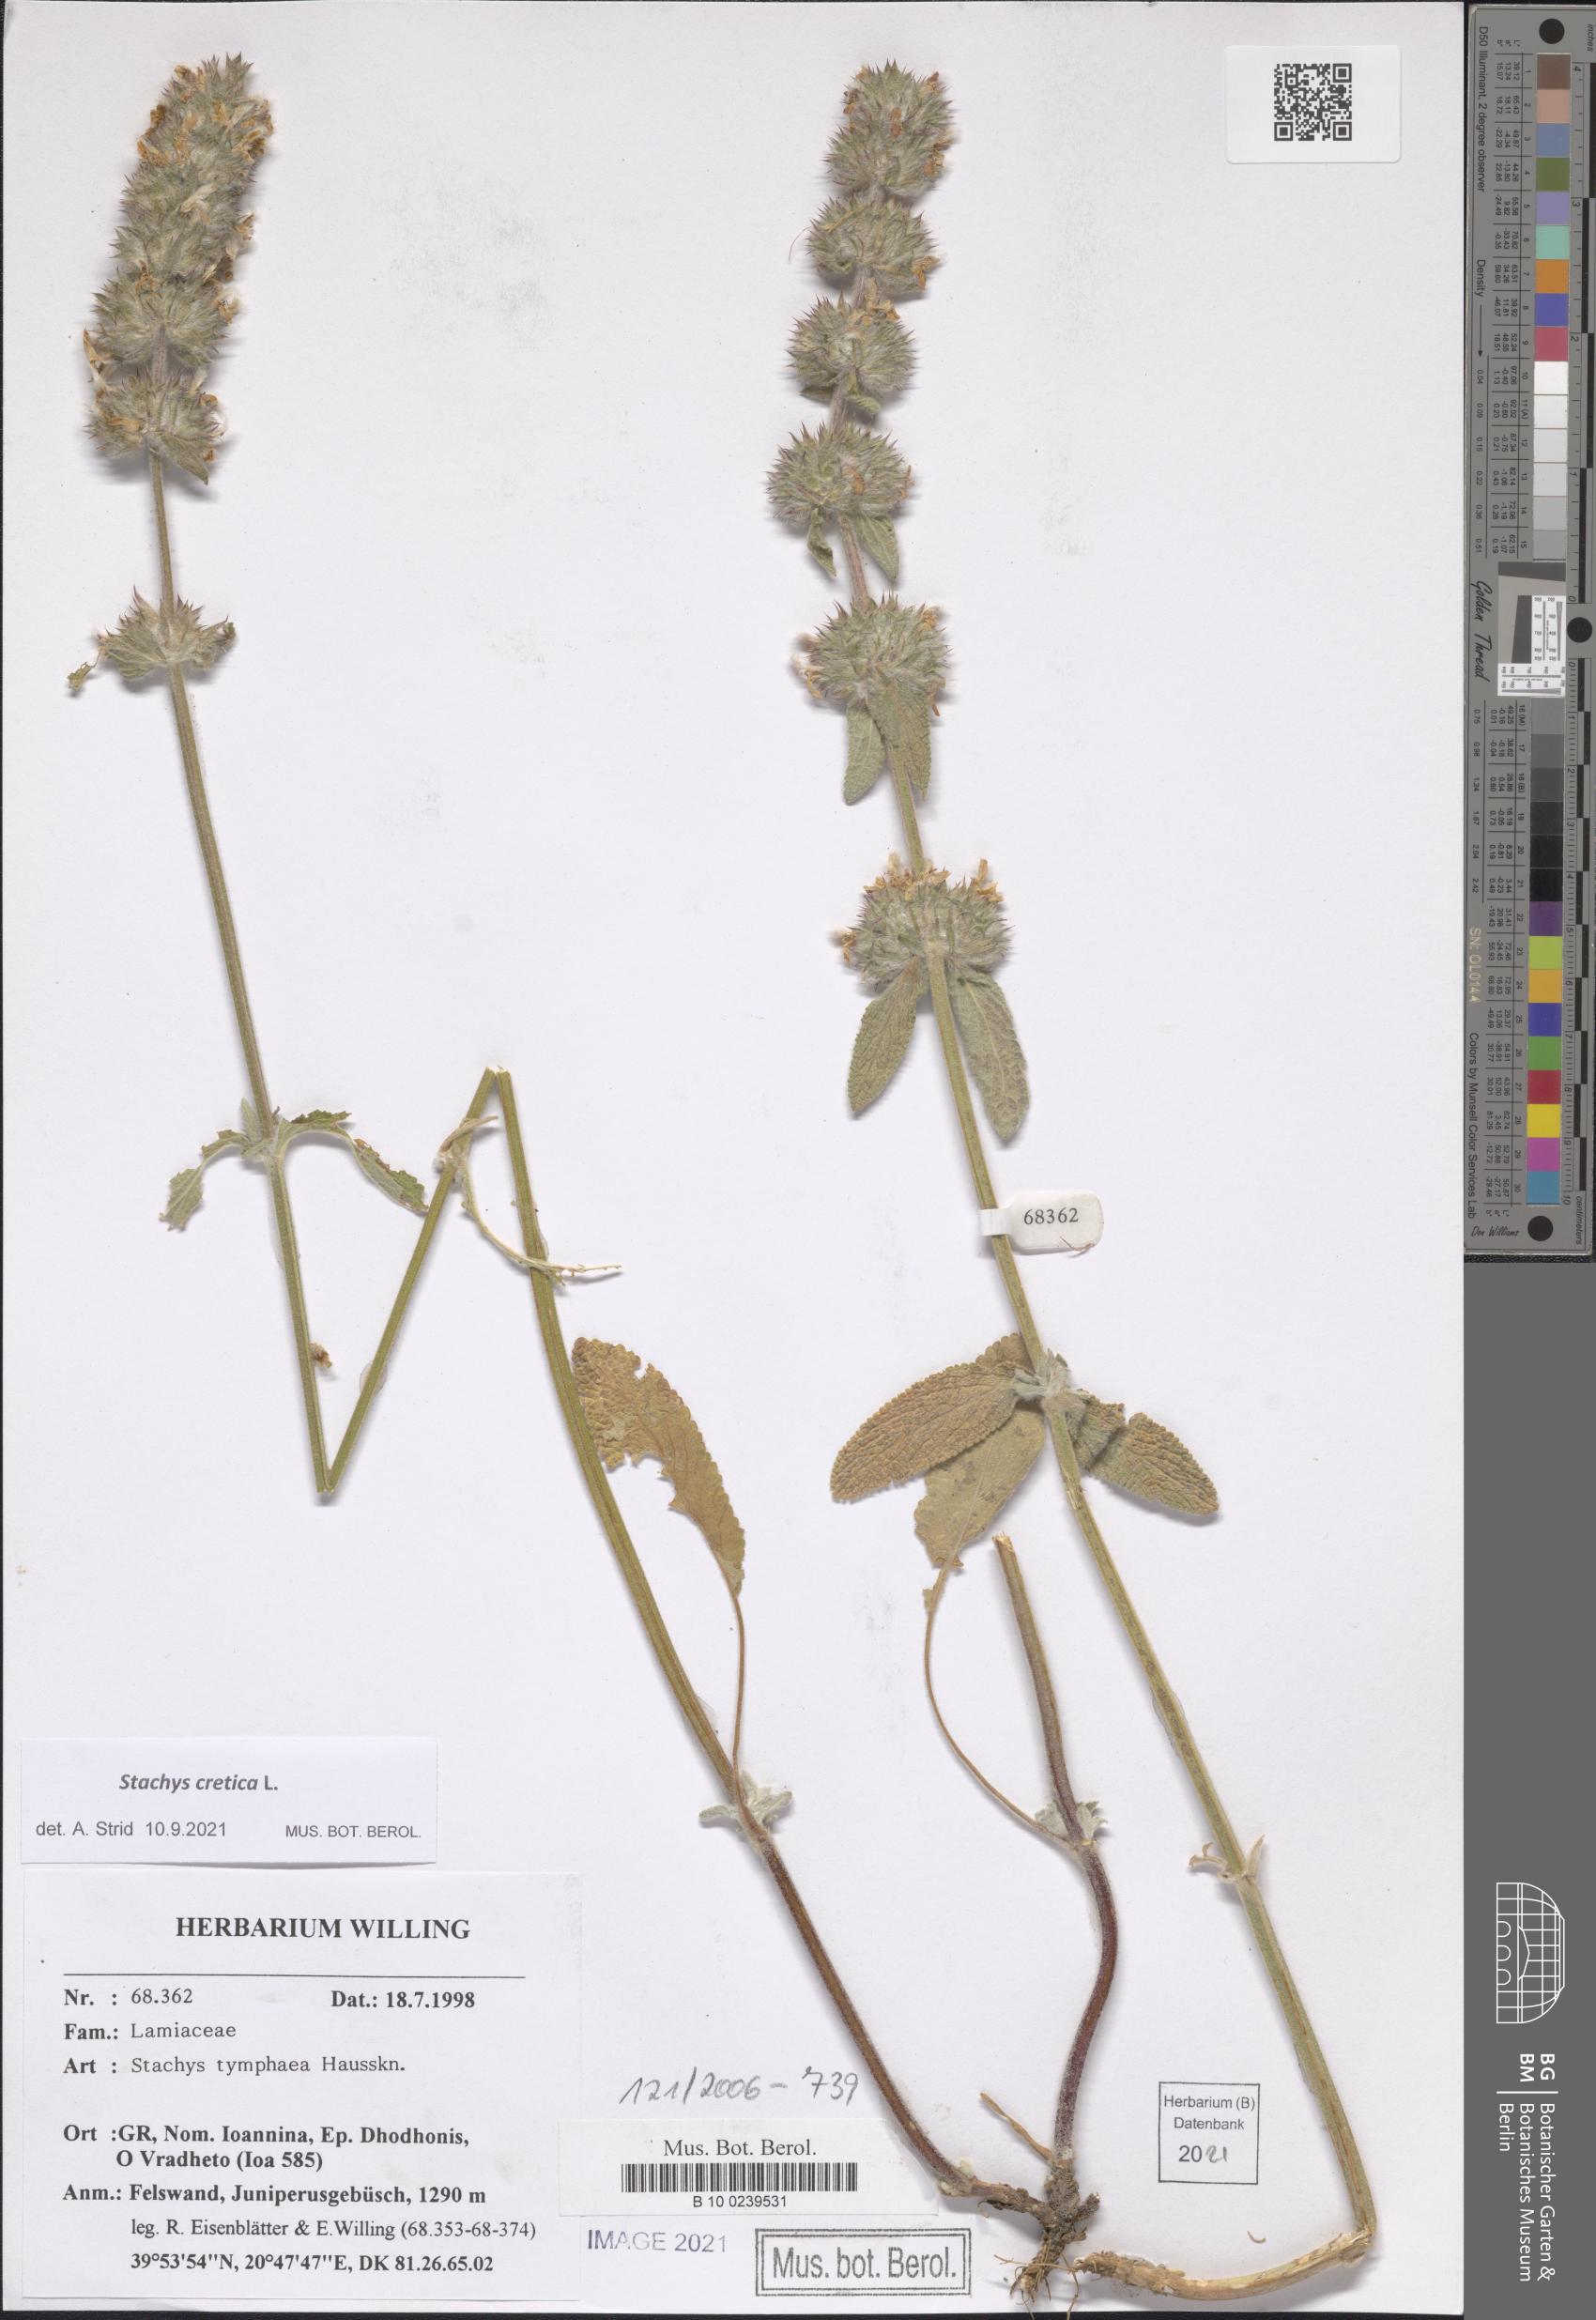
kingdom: Plantae
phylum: Tracheophyta
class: Magnoliopsida
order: Lamiales
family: Lamiaceae
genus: Stachys
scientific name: Stachys cretica
